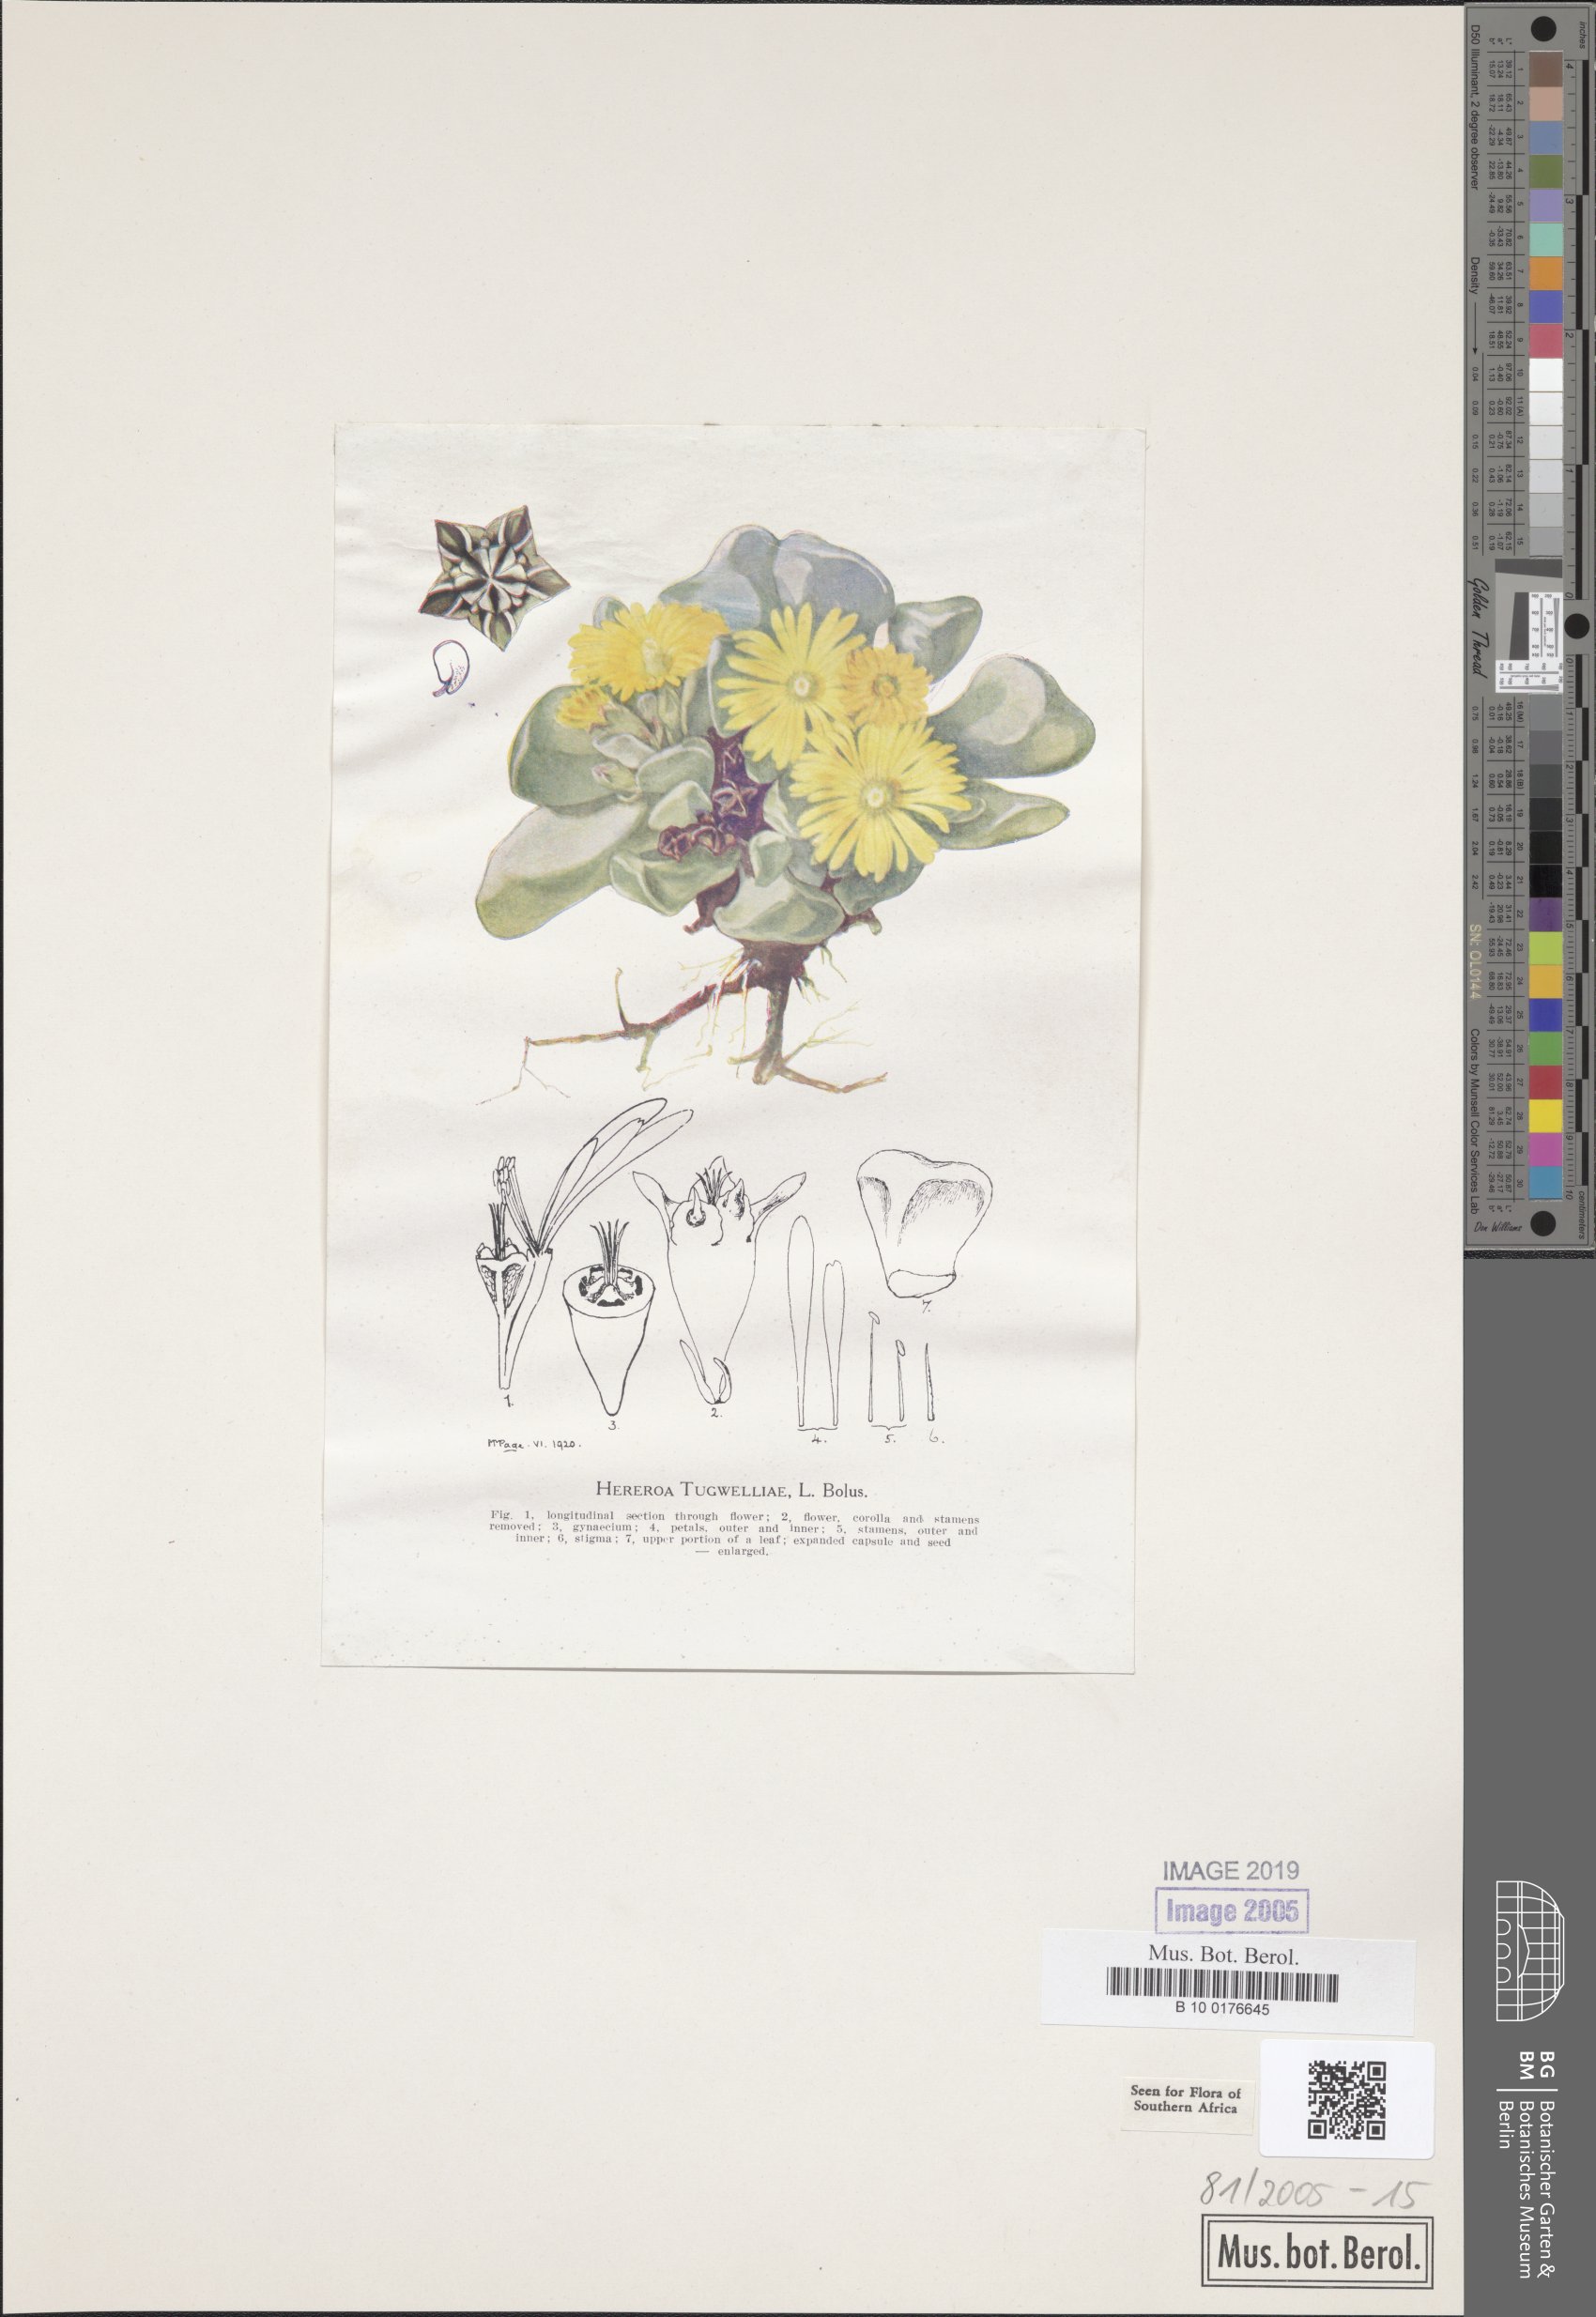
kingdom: Plantae
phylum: Tracheophyta
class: Magnoliopsida
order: Caryophyllales
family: Aizoaceae
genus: Bijlia
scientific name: Bijlia tugwelliae
